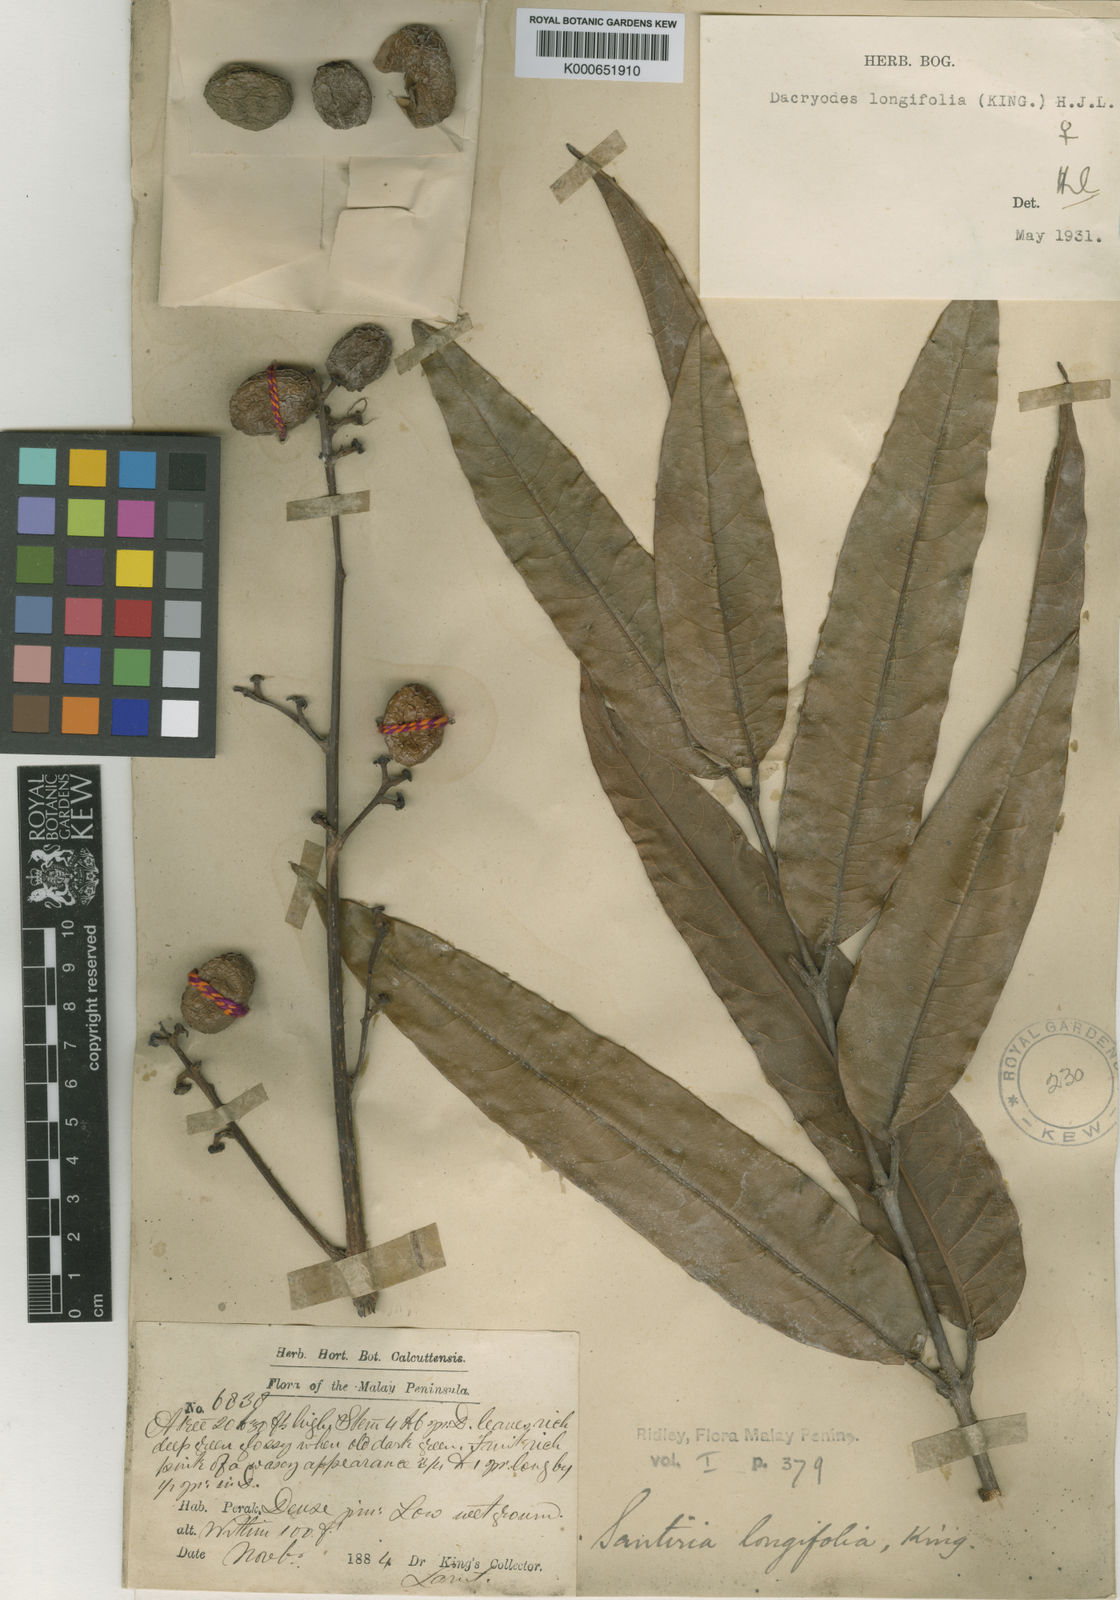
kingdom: Plantae
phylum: Tracheophyta
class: Magnoliopsida
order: Sapindales
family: Burseraceae
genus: Dacryodes
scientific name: Dacryodes longifolia
